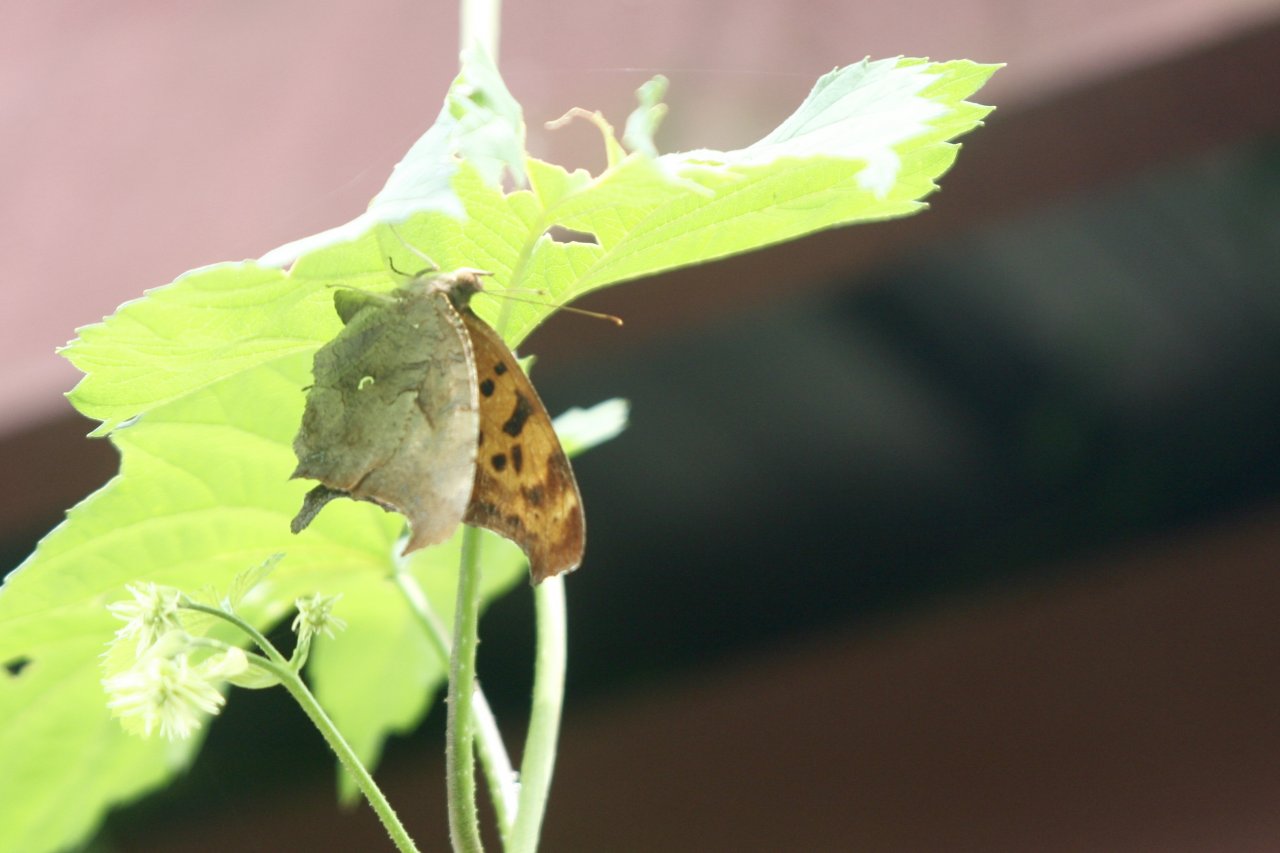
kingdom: Animalia
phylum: Arthropoda
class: Insecta
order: Lepidoptera
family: Nymphalidae
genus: Polygonia
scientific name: Polygonia interrogationis
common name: Question Mark
